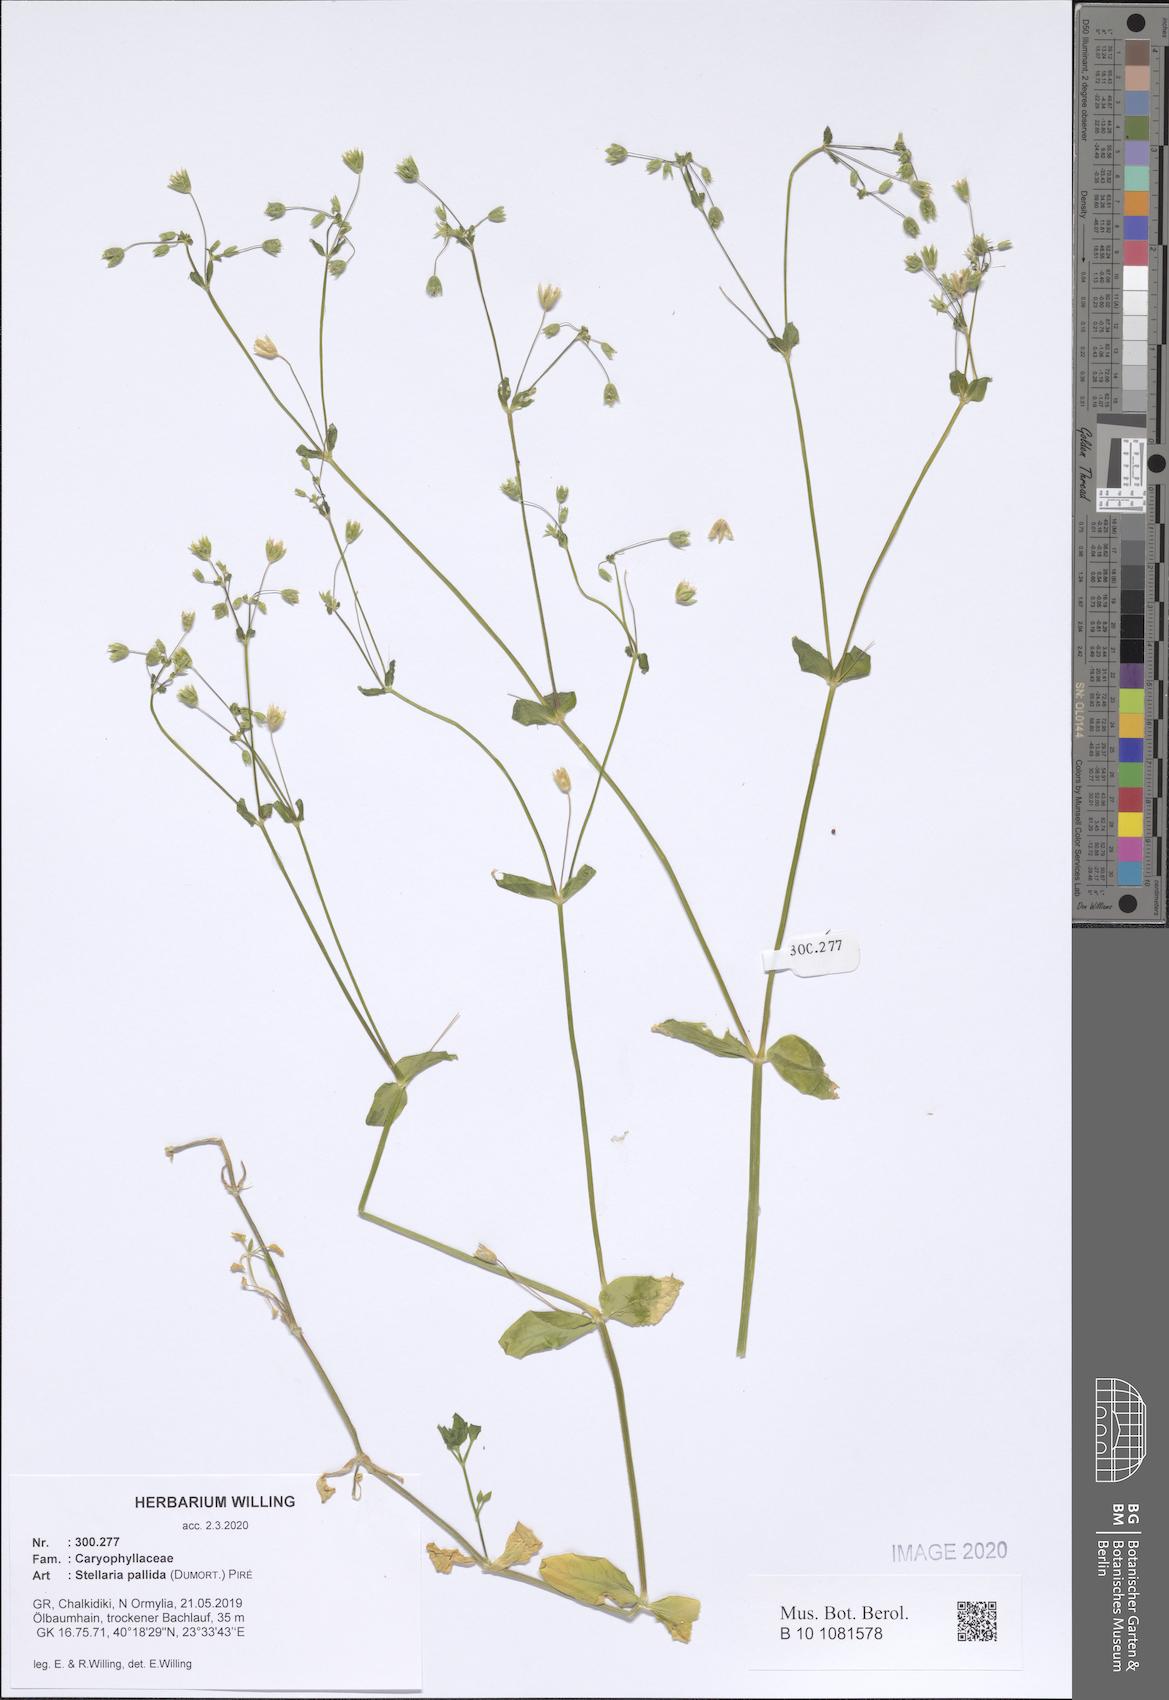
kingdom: Plantae
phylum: Tracheophyta
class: Magnoliopsida
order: Caryophyllales
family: Caryophyllaceae
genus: Stellaria
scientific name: Stellaria apetala
